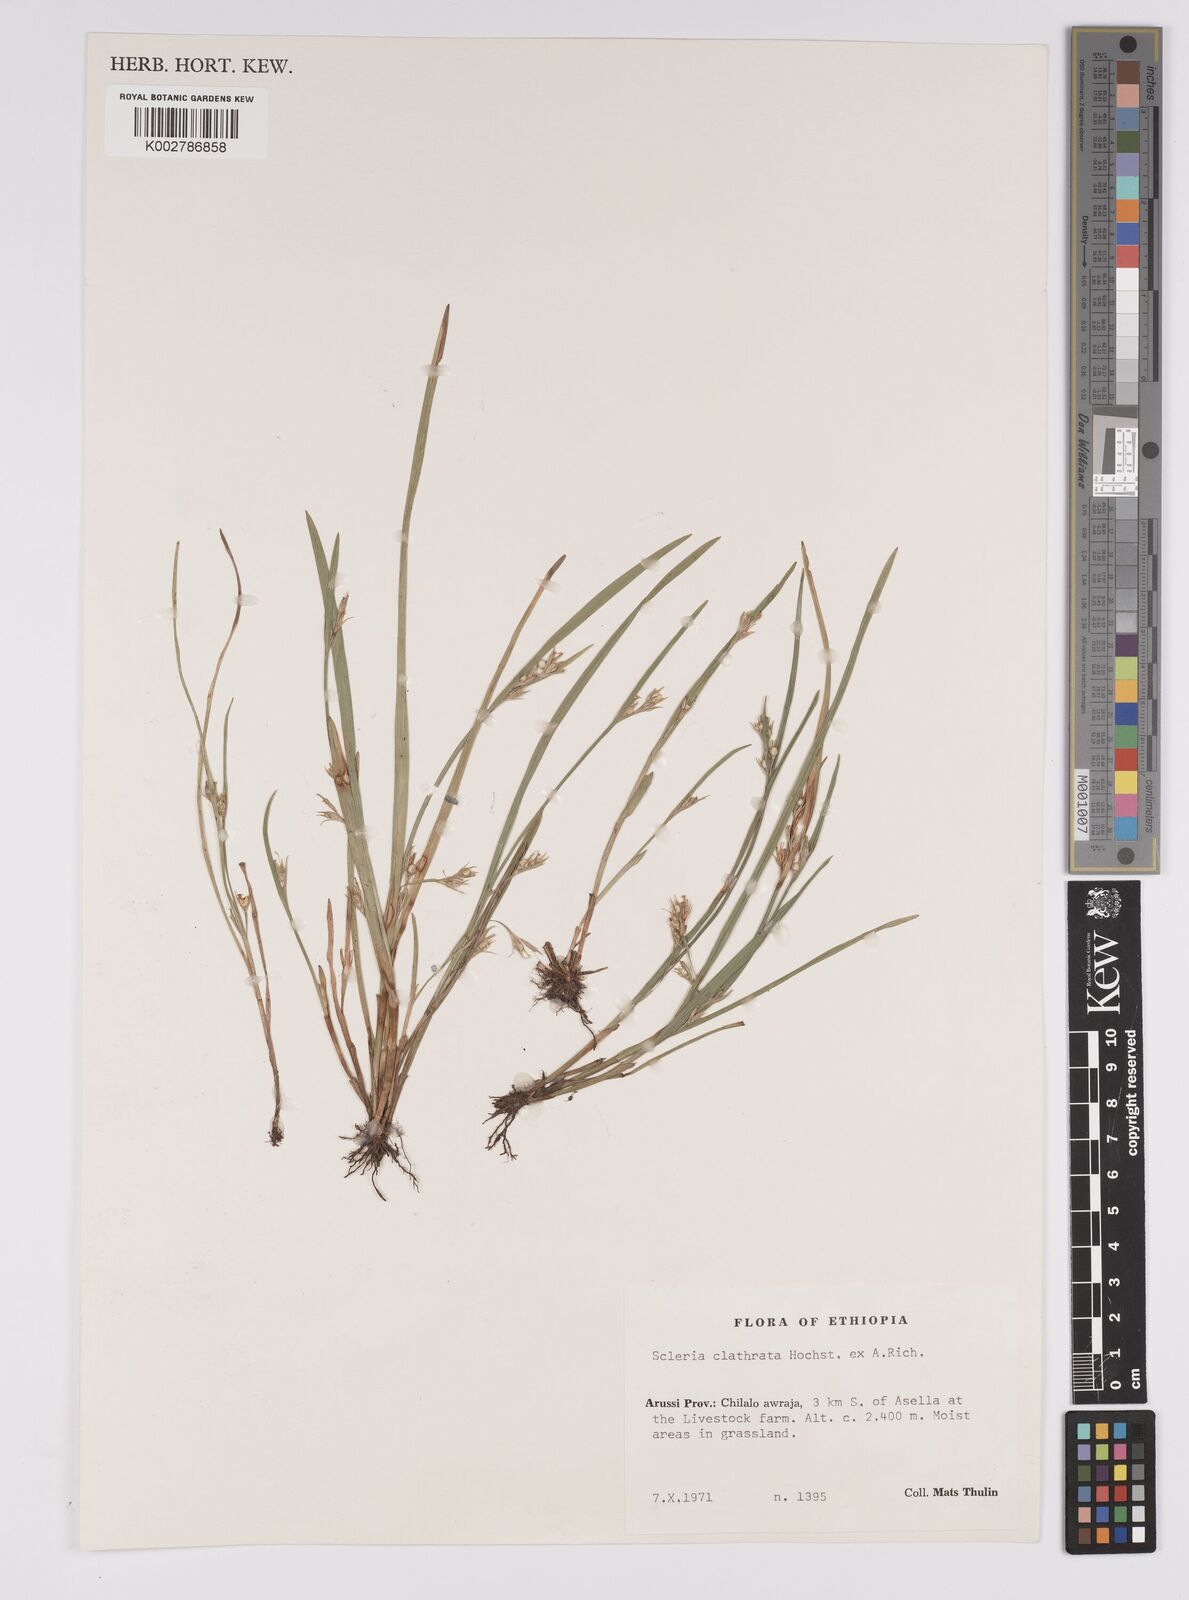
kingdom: Plantae
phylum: Tracheophyta
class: Liliopsida
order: Poales
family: Cyperaceae
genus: Scleria
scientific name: Scleria clathrata
